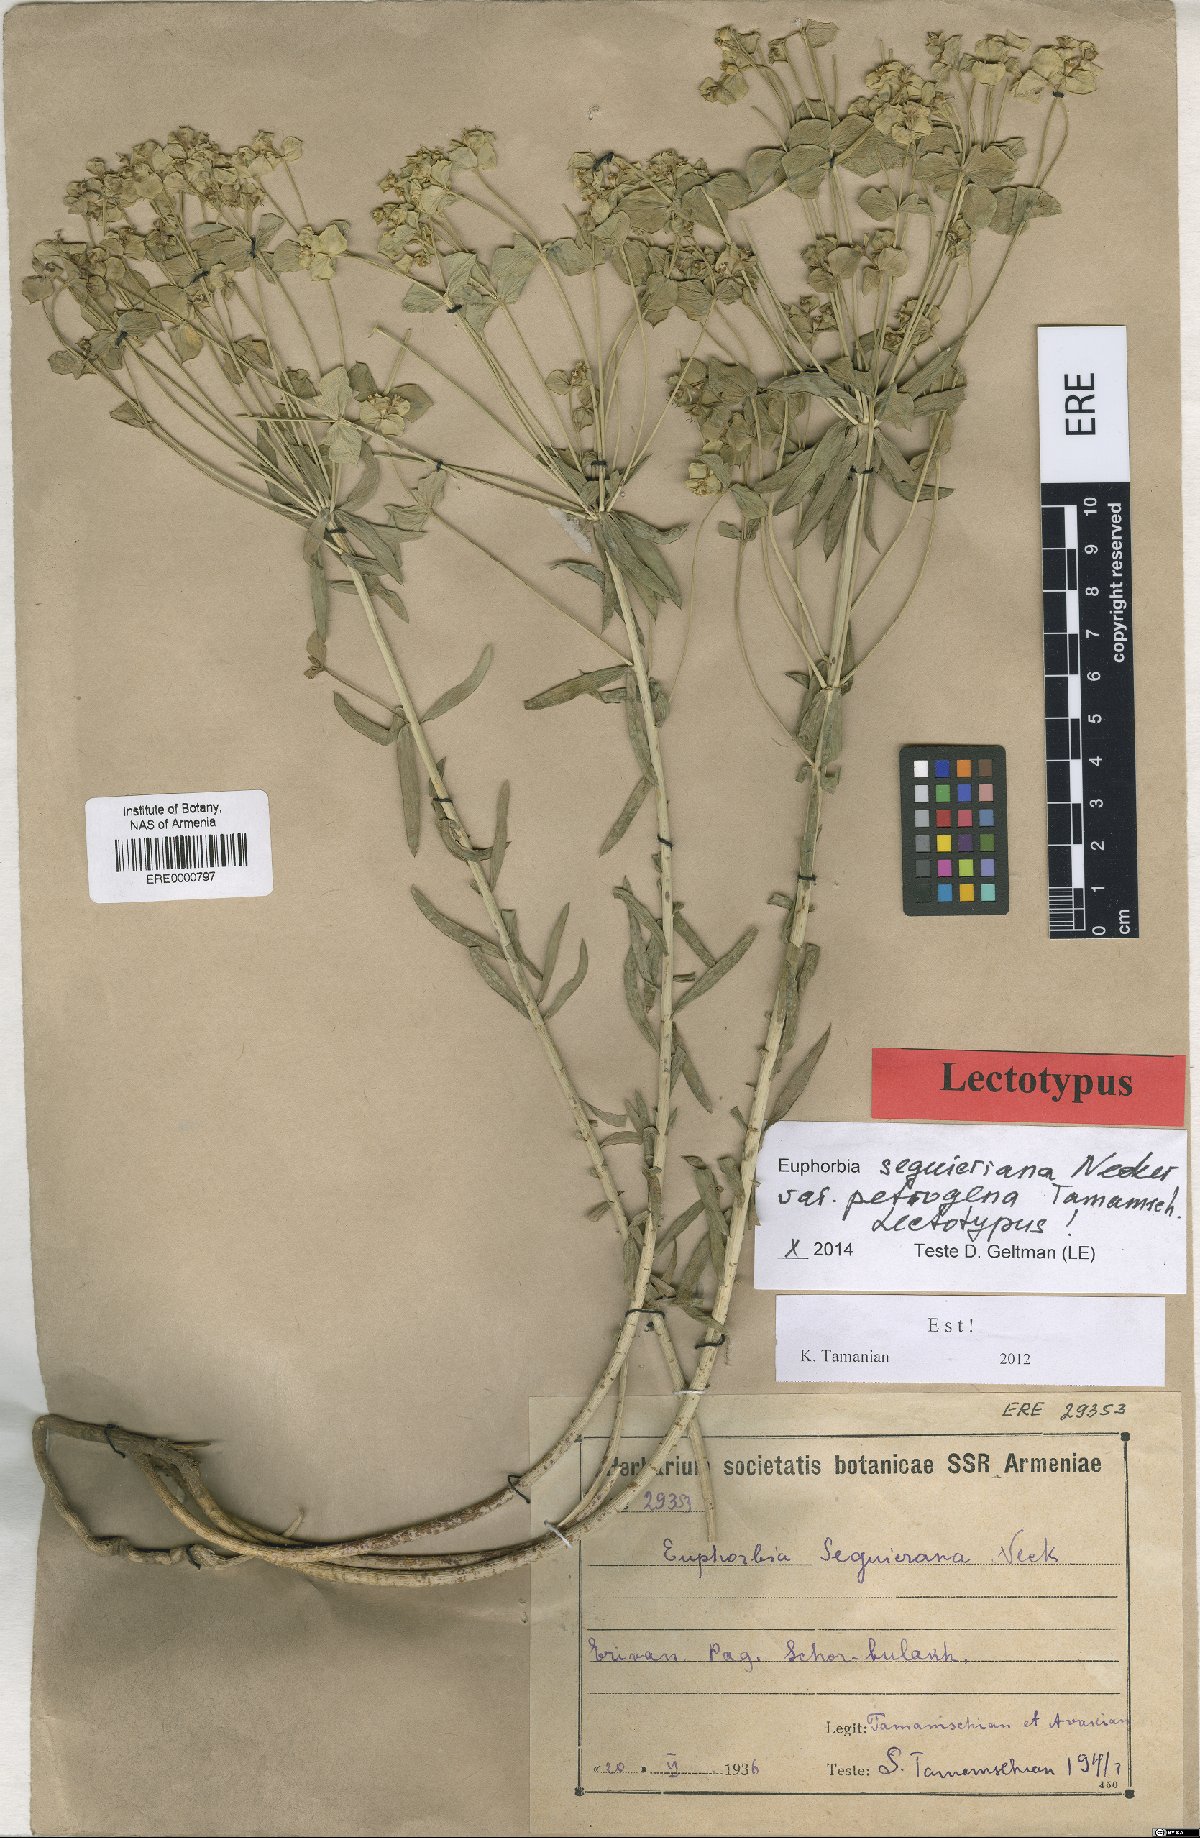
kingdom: Plantae
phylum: Tracheophyta
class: Magnoliopsida
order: Malpighiales
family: Euphorbiaceae
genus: Euphorbia
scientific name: Euphorbia seguieriana
